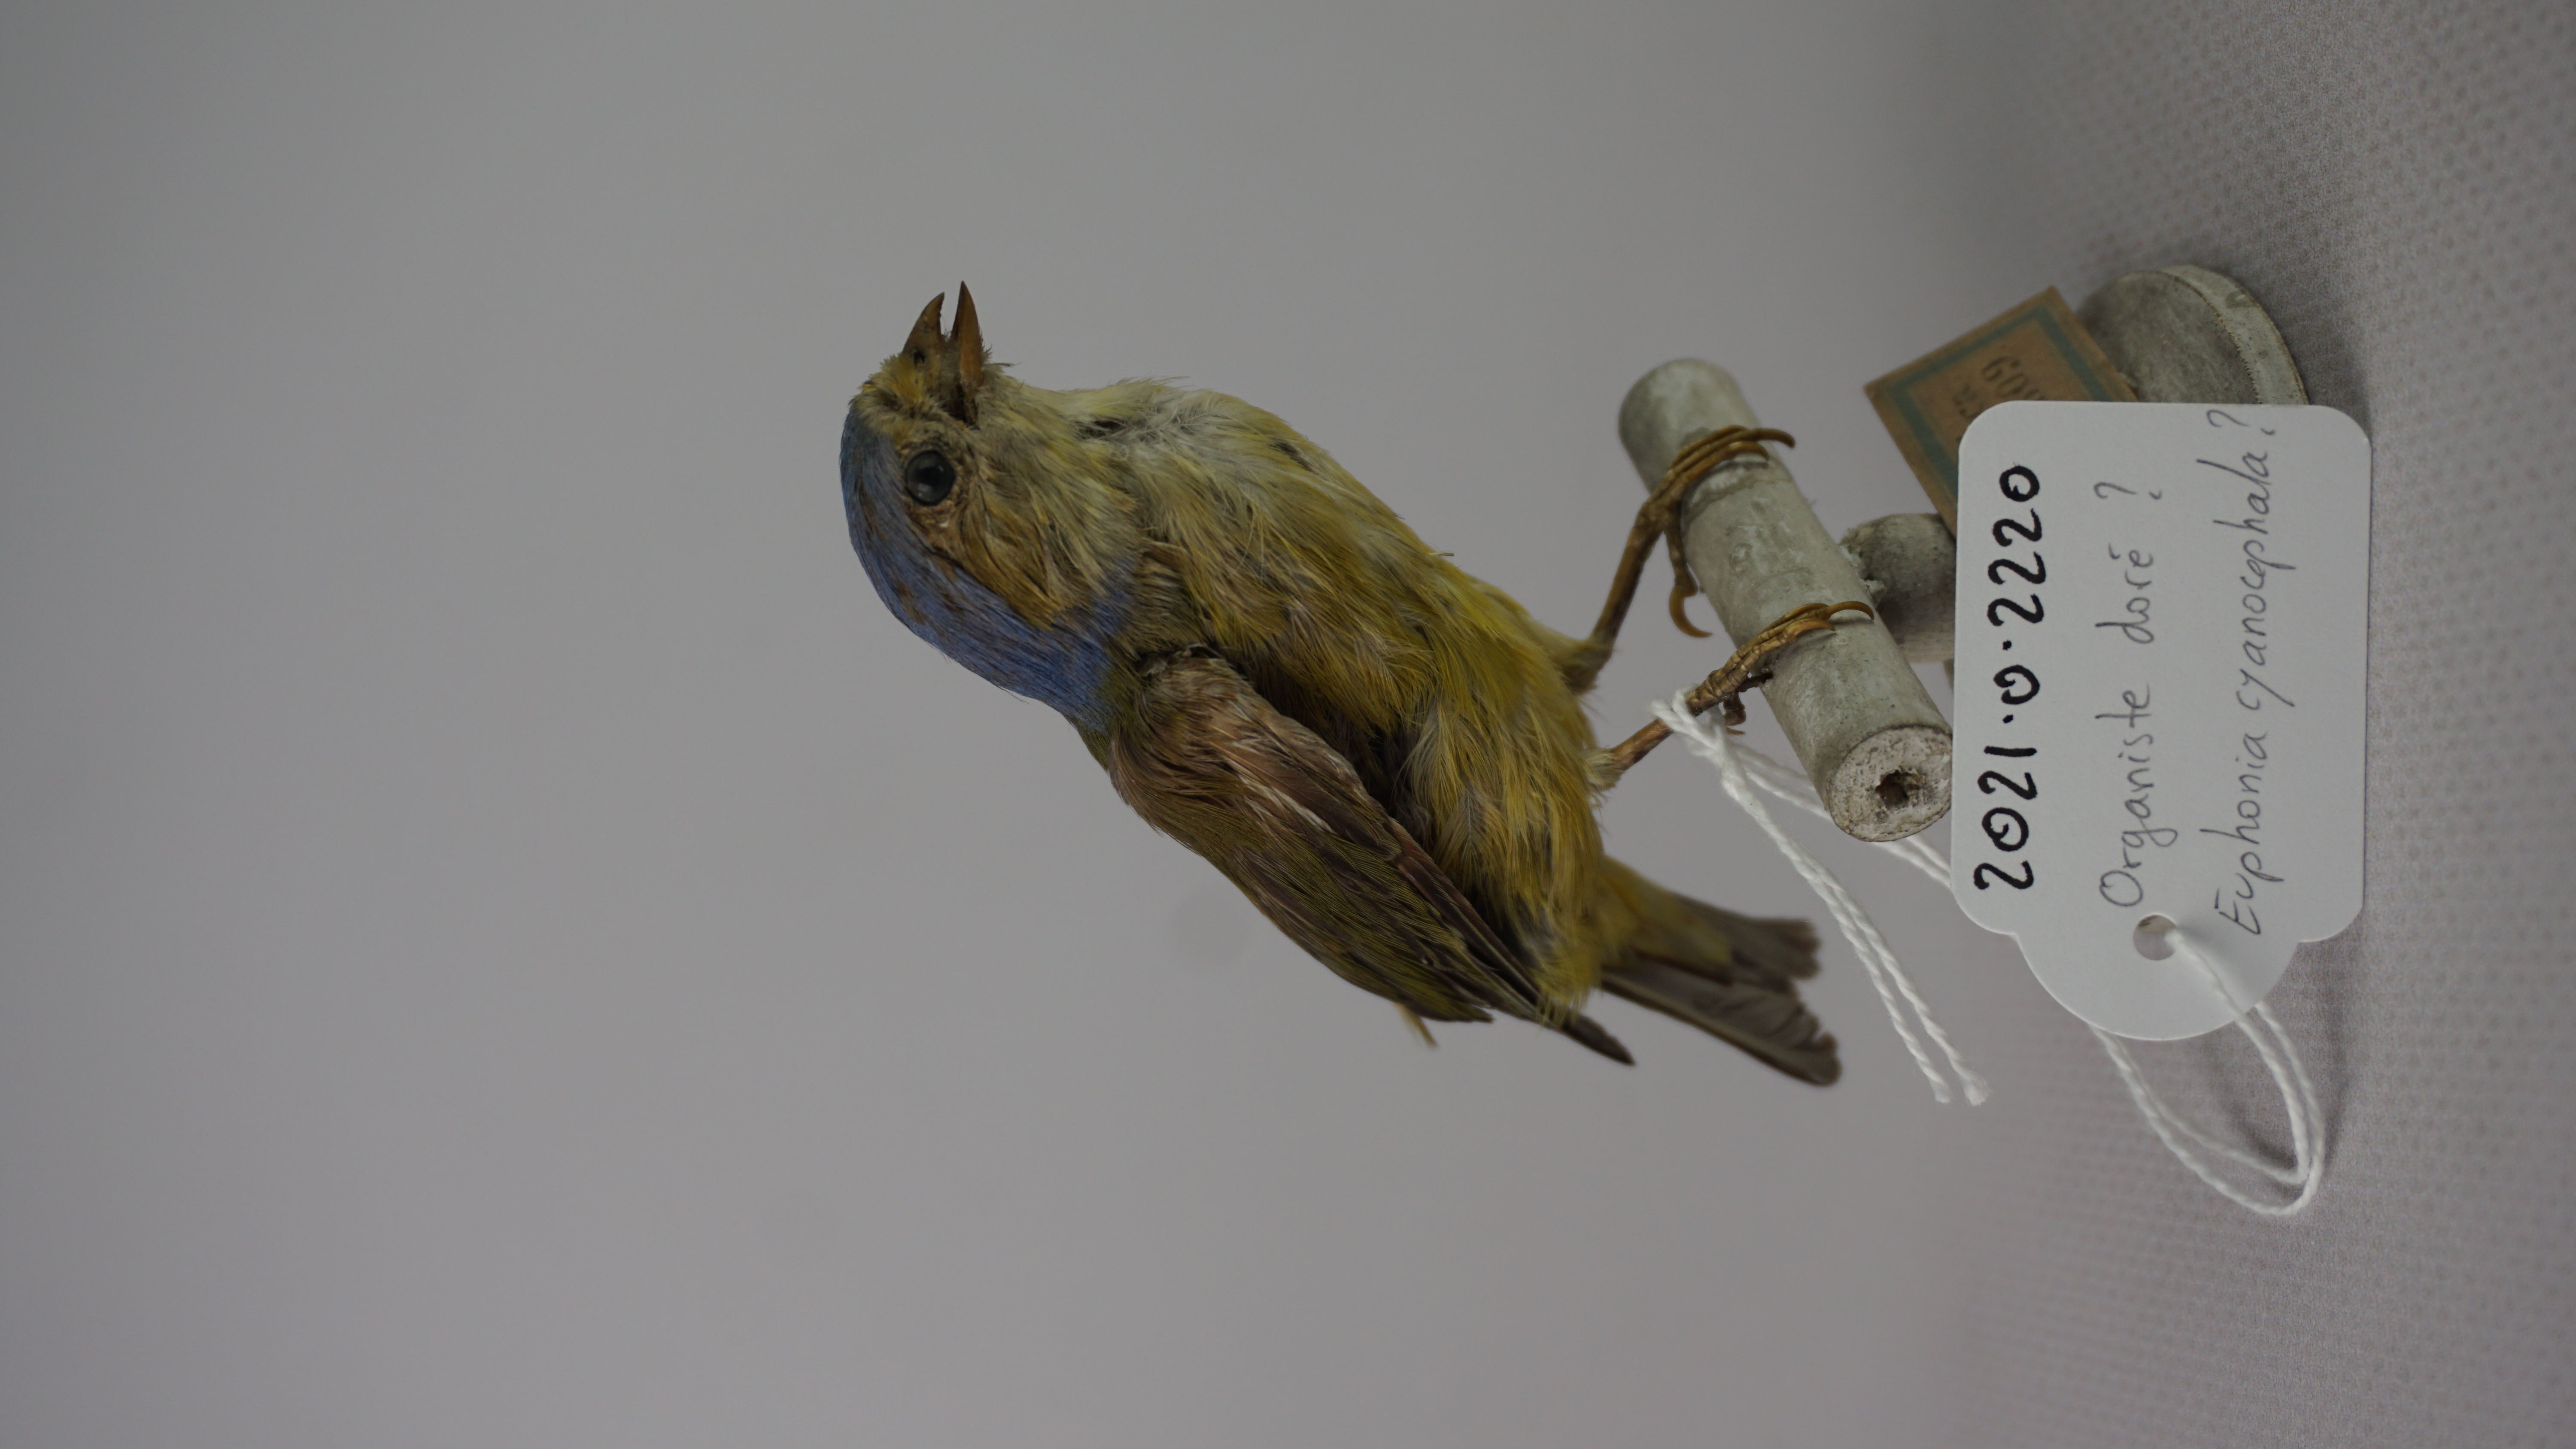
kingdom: Animalia
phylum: Chordata
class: Aves
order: Passeriformes
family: Fringillidae
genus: Euphonia
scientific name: Euphonia cyanocephala
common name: Golden-rumped euphonia
